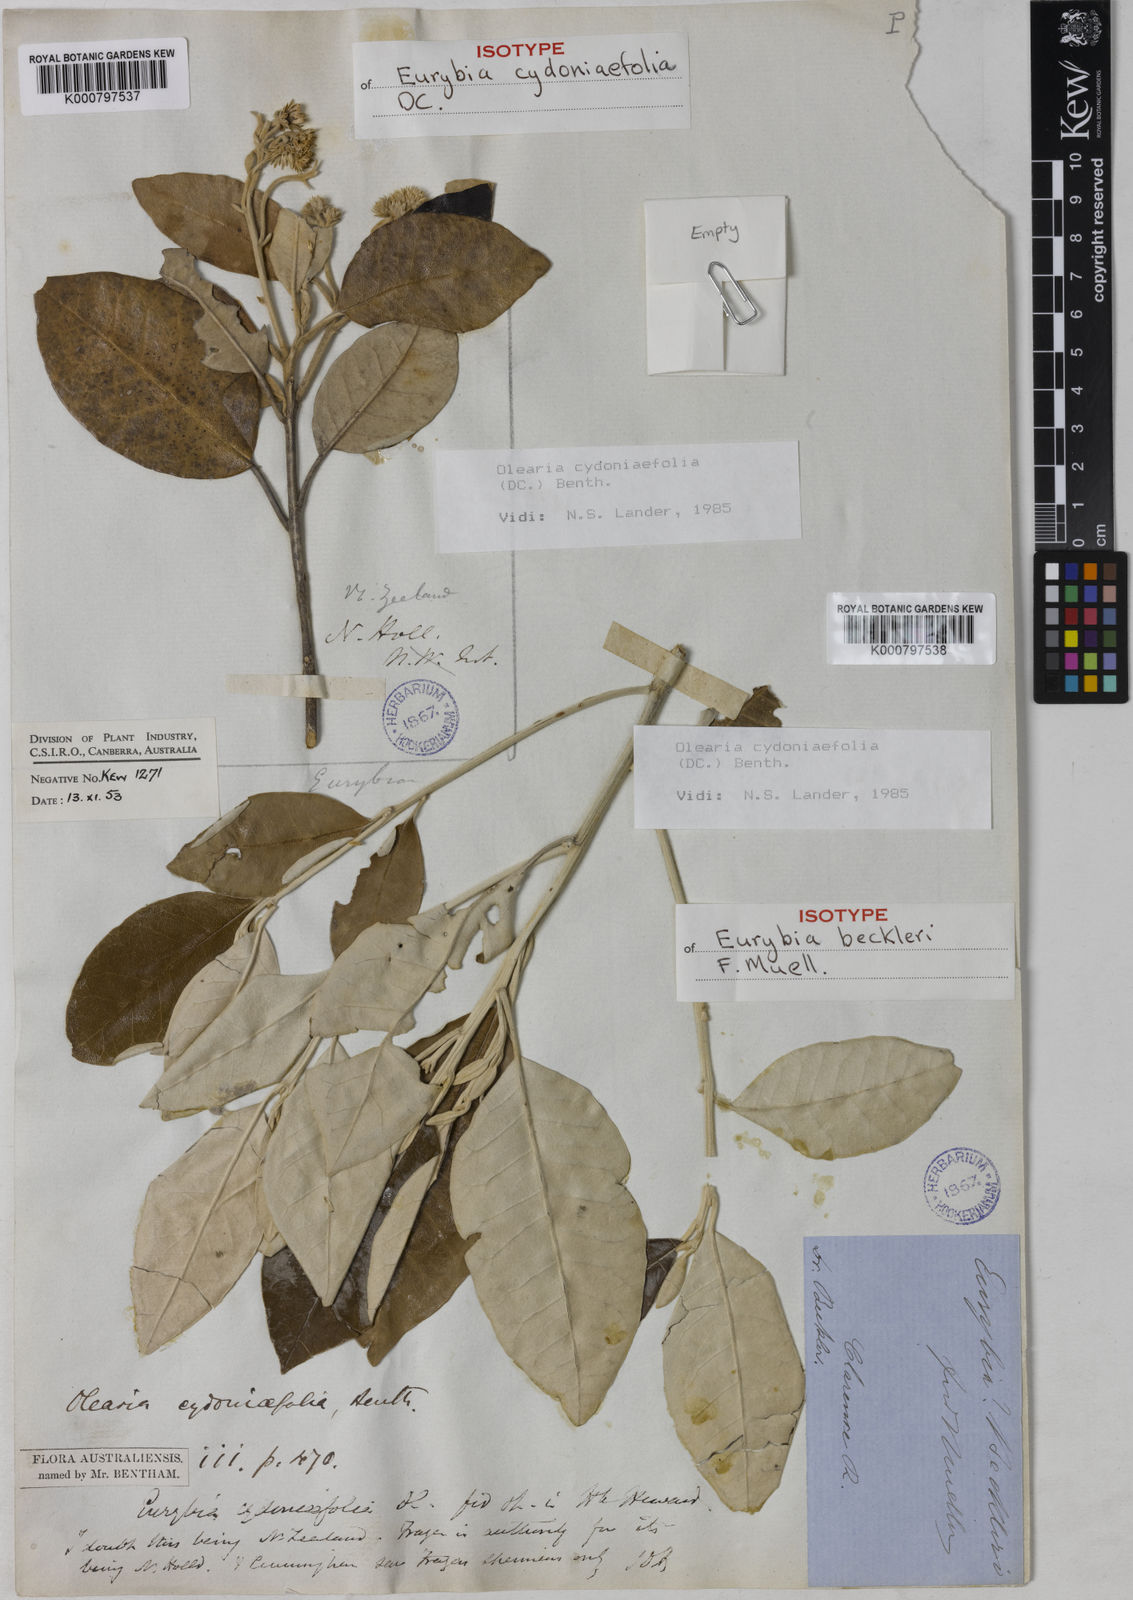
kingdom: Plantae
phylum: Tracheophyta
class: Magnoliopsida
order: Asterales
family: Asteraceae
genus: Olearia
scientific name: Olearia cydoniifolia
